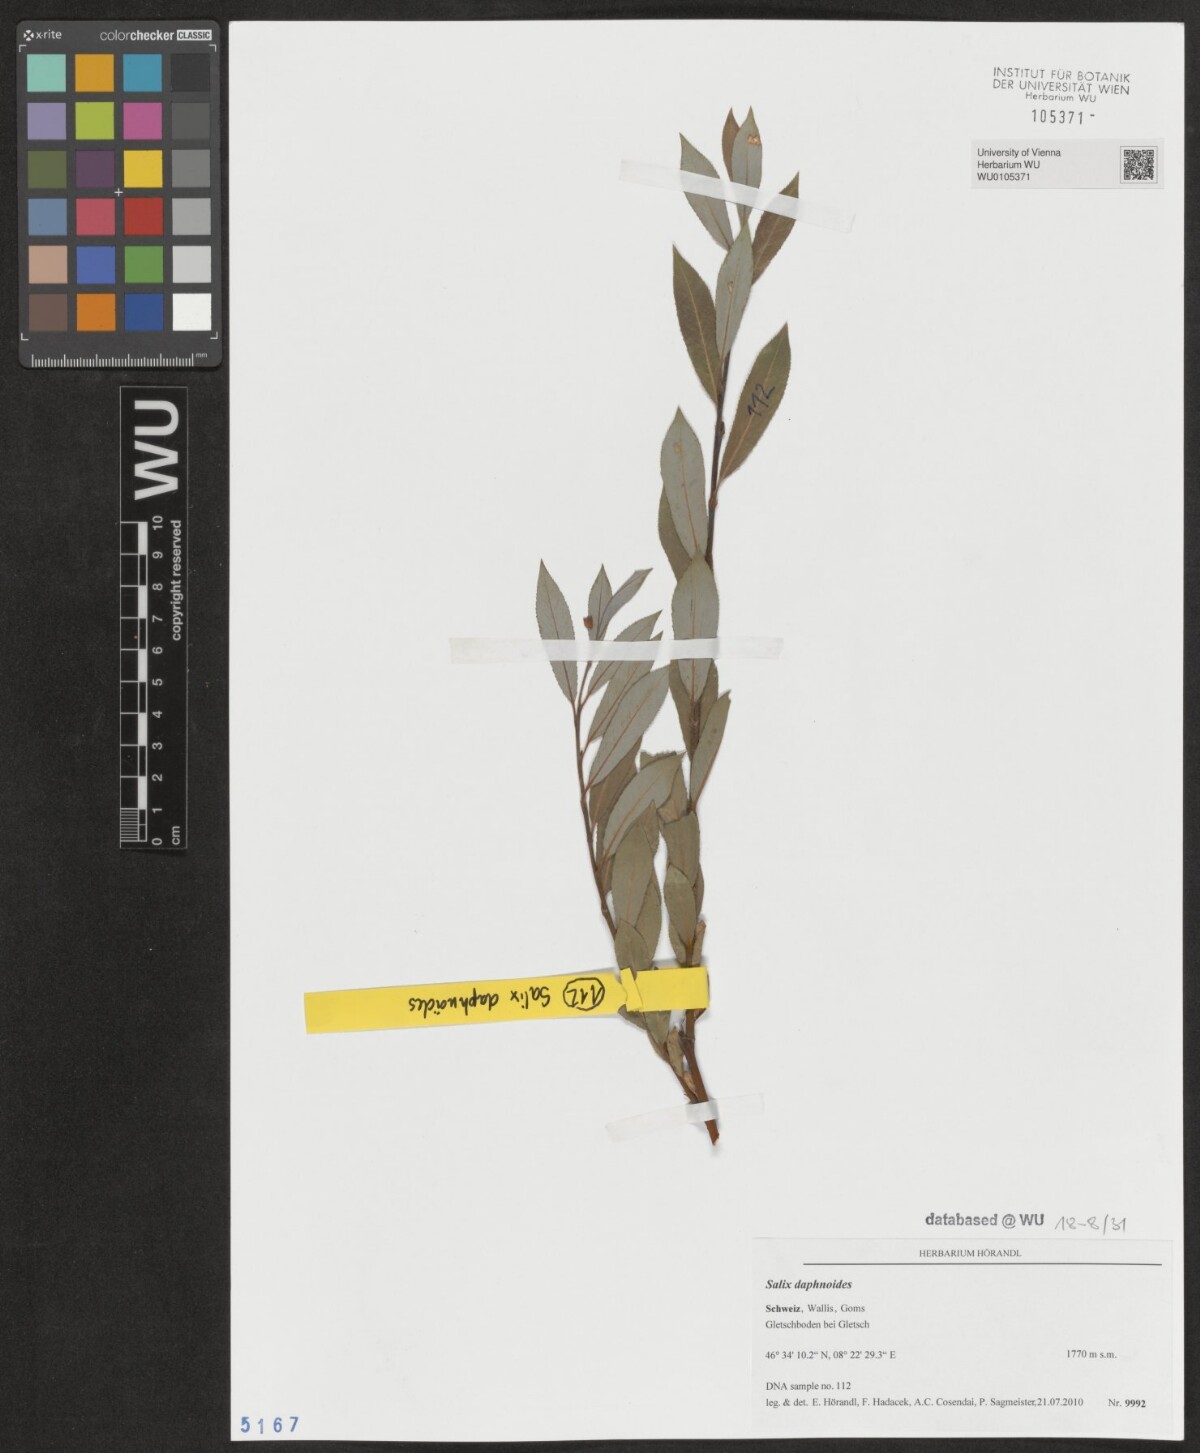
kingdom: Plantae
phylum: Tracheophyta
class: Magnoliopsida
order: Malpighiales
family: Salicaceae
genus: Salix
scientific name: Salix daphnoides
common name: European violet-willow
